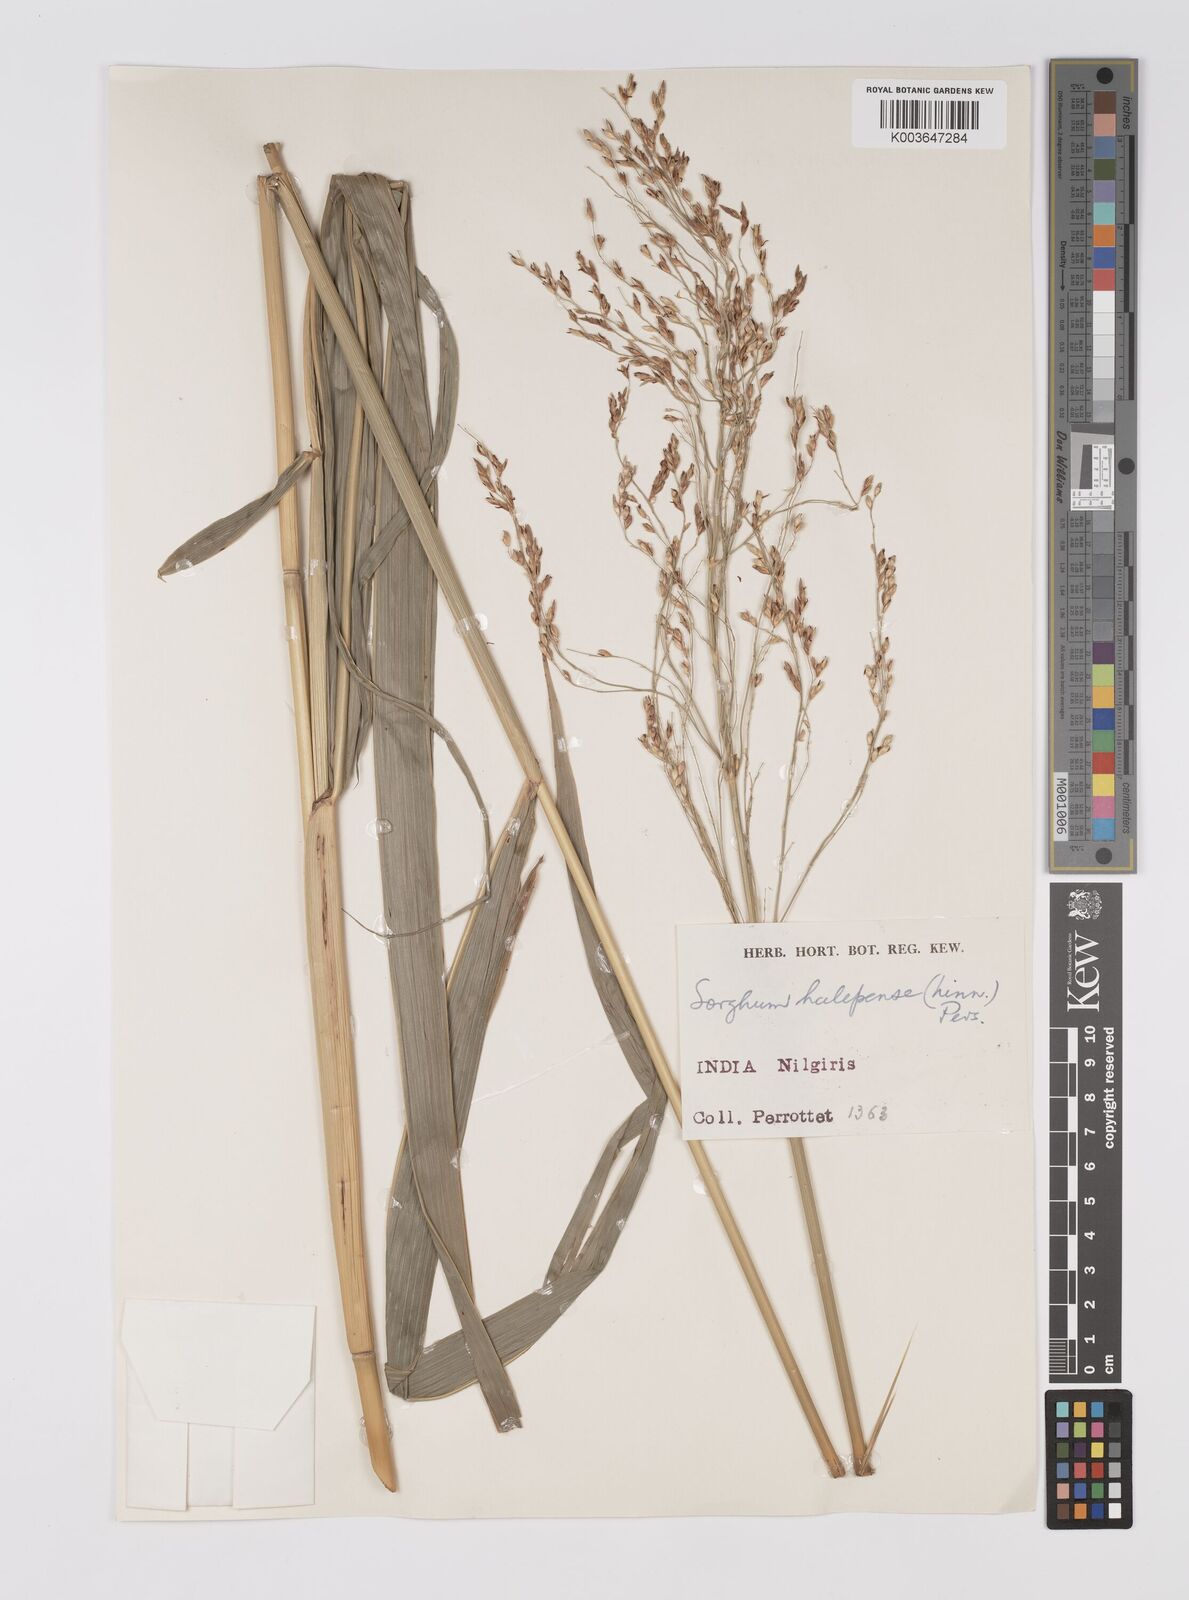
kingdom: Plantae
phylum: Tracheophyta
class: Liliopsida
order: Poales
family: Poaceae
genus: Sorghum
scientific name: Sorghum halepense
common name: Johnson-grass
